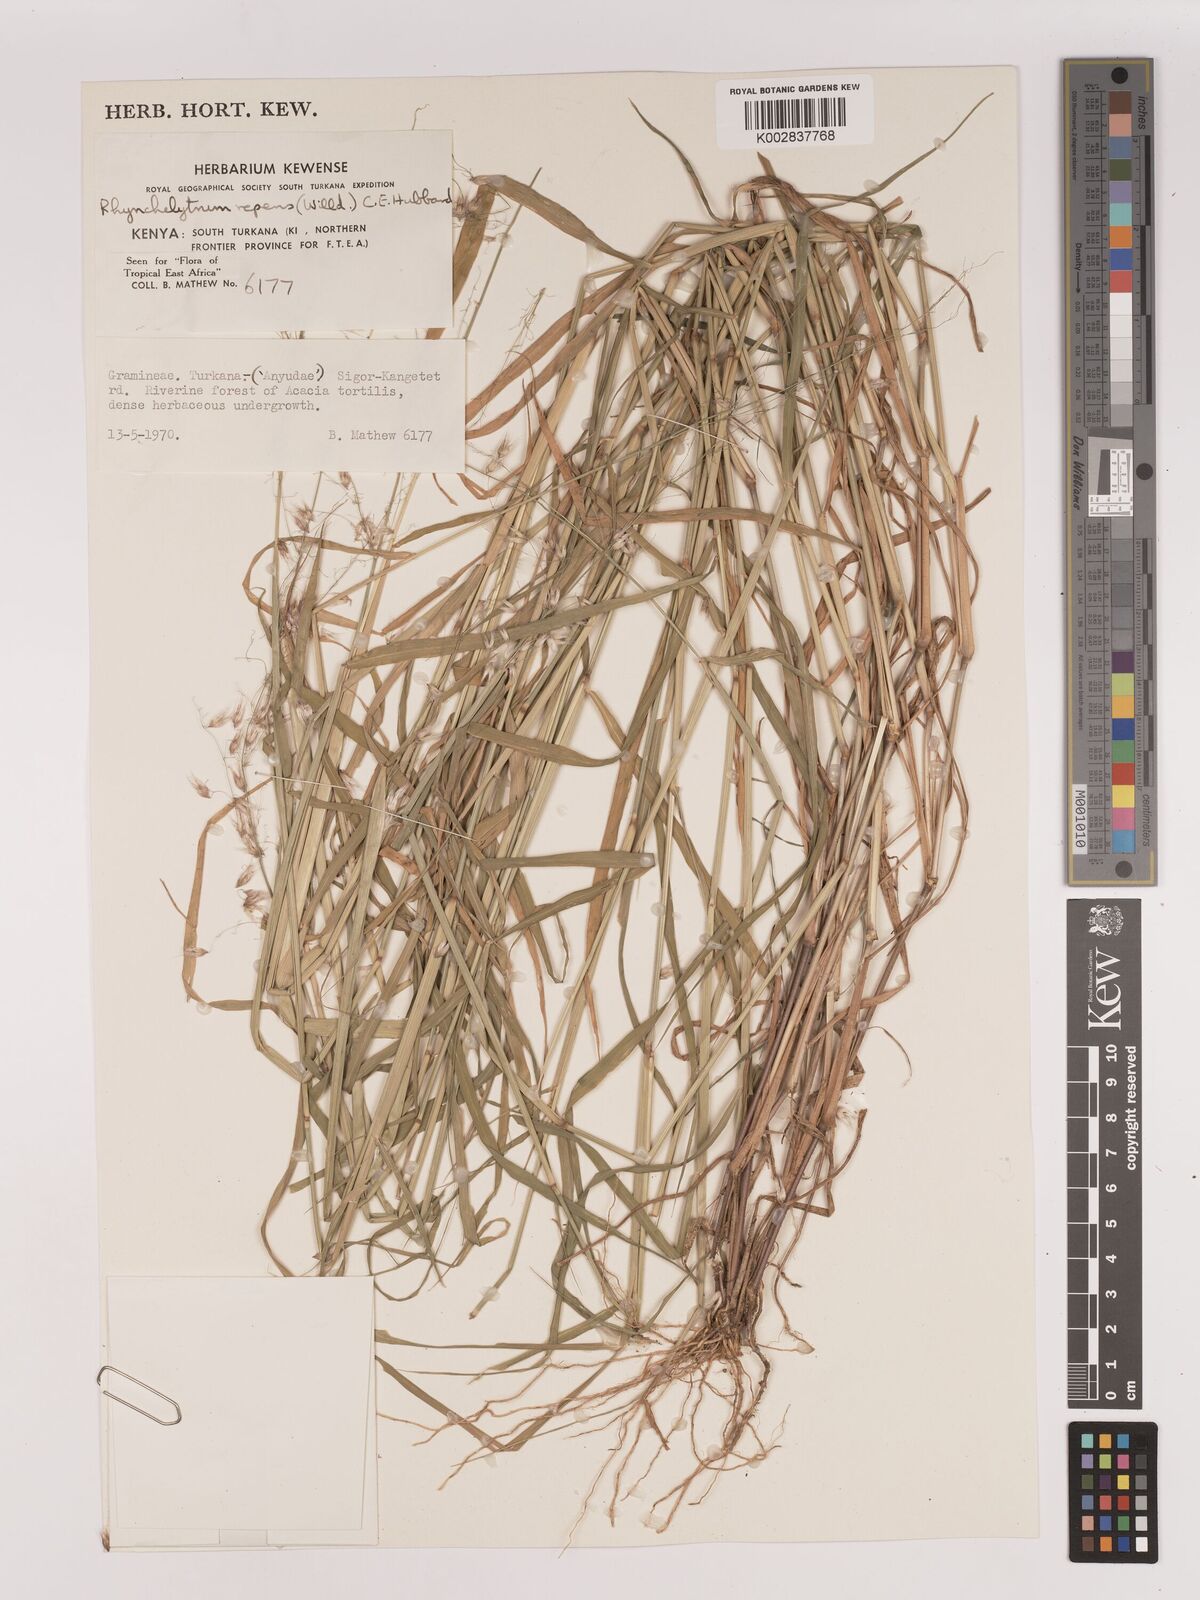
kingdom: Plantae
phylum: Tracheophyta
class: Liliopsida
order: Poales
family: Poaceae
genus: Melinis
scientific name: Melinis repens
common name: Rose natal grass
